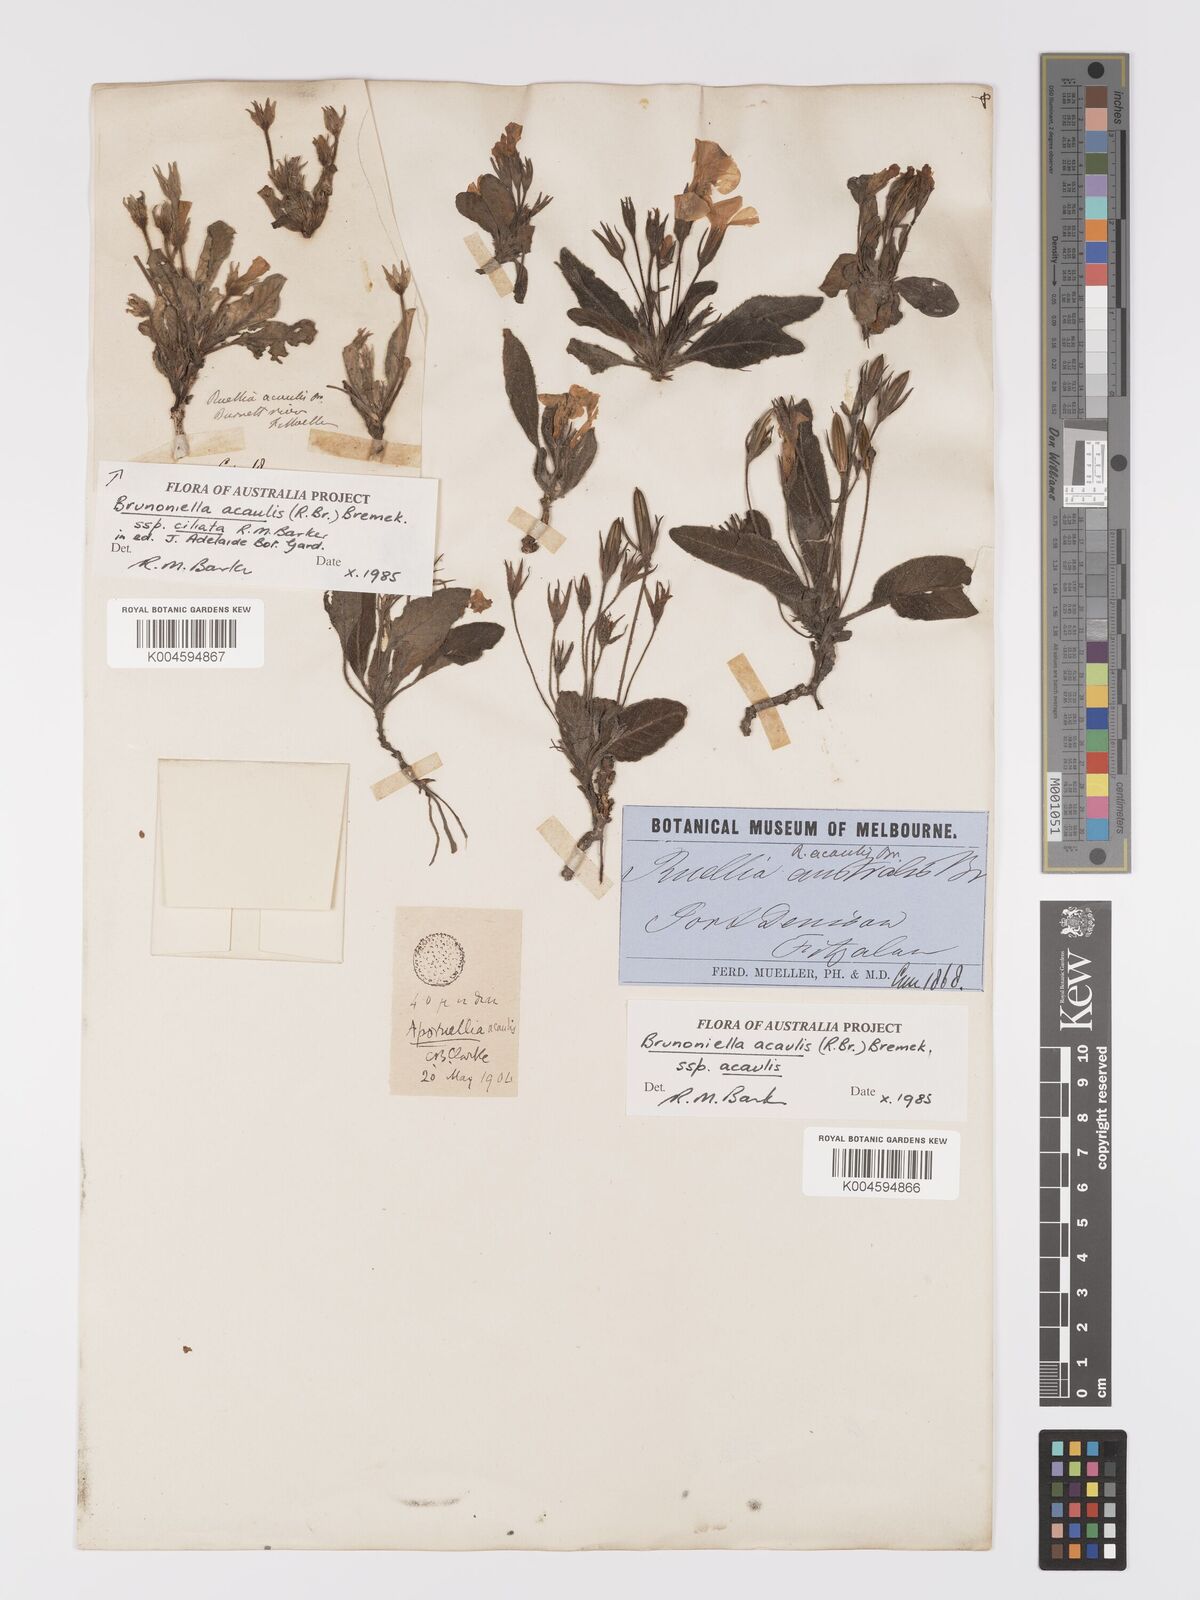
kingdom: Plantae
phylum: Tracheophyta
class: Magnoliopsida
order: Lamiales
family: Acanthaceae
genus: Brunoniella
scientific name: Brunoniella acaulis
